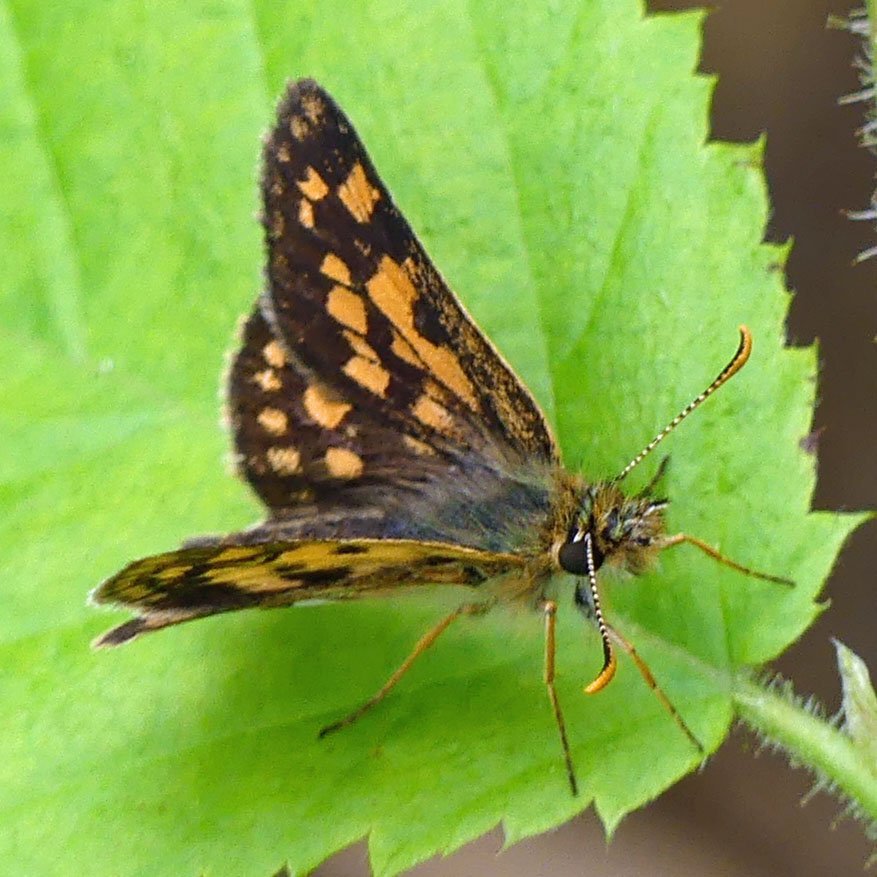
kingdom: Animalia
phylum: Arthropoda
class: Insecta
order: Lepidoptera
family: Hesperiidae
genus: Carterocephalus
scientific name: Carterocephalus palaemon
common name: Chequered Skipper
